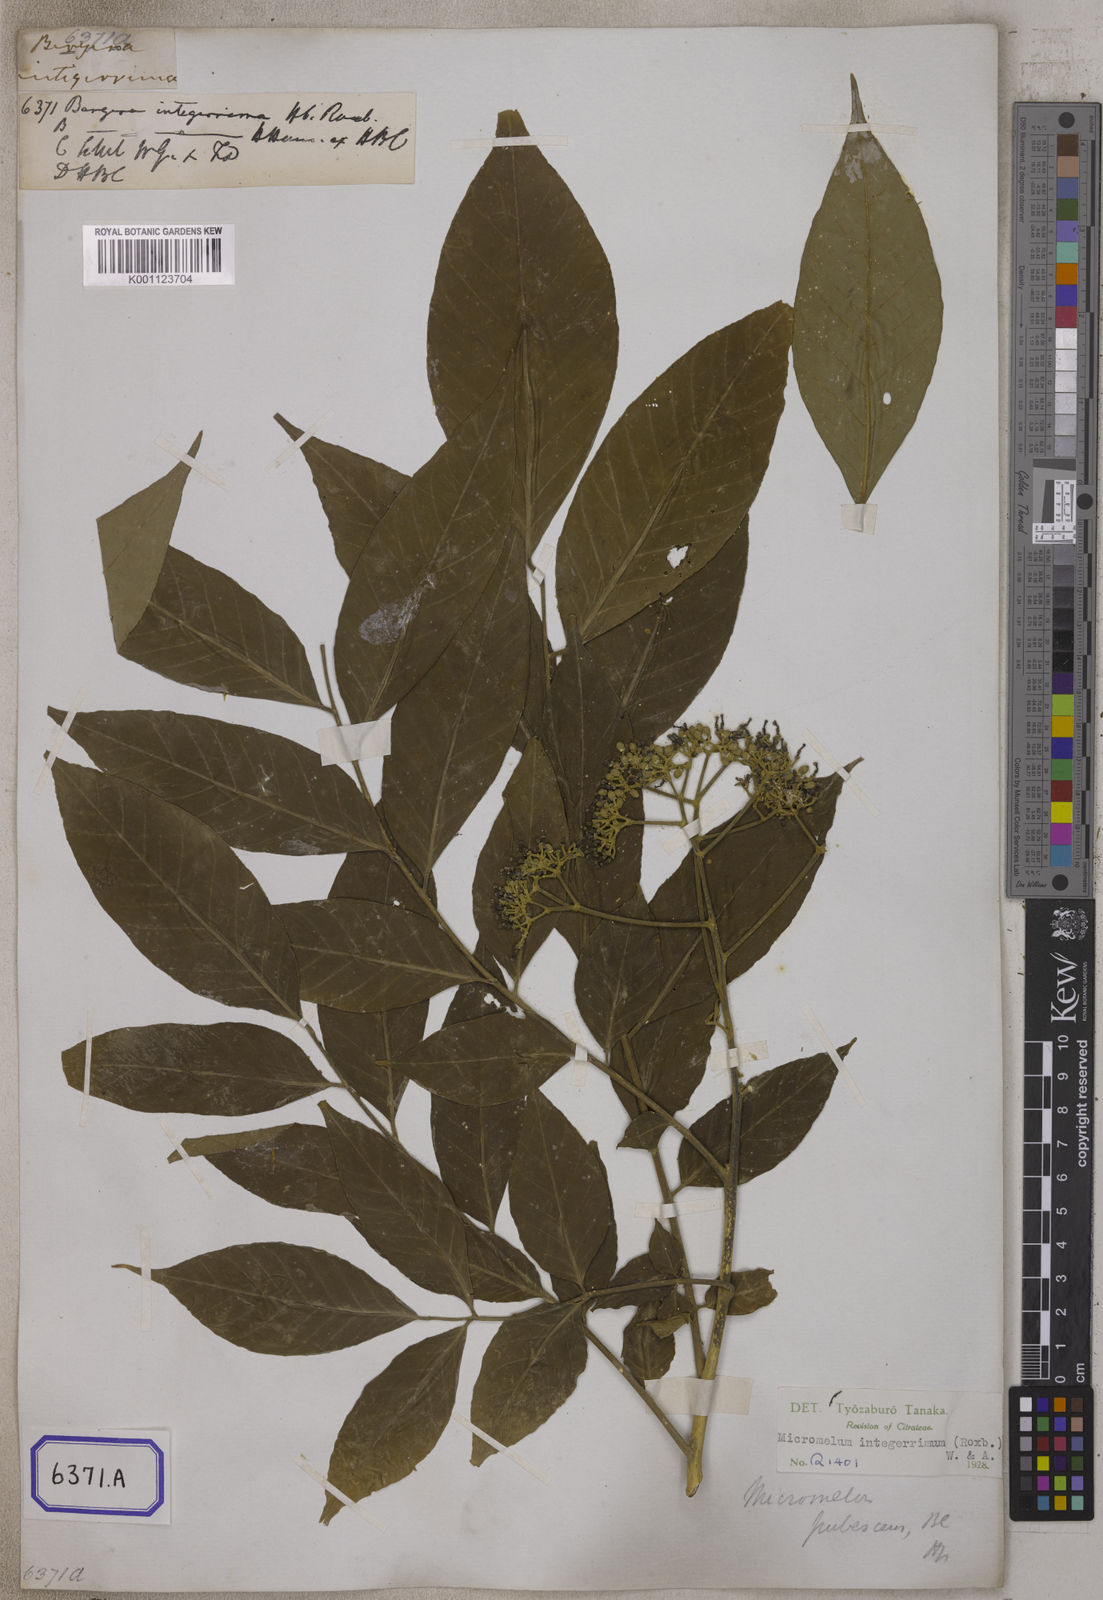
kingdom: Plantae
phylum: Tracheophyta
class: Magnoliopsida
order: Sapindales
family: Rutaceae
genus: Bergera
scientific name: Bergera
